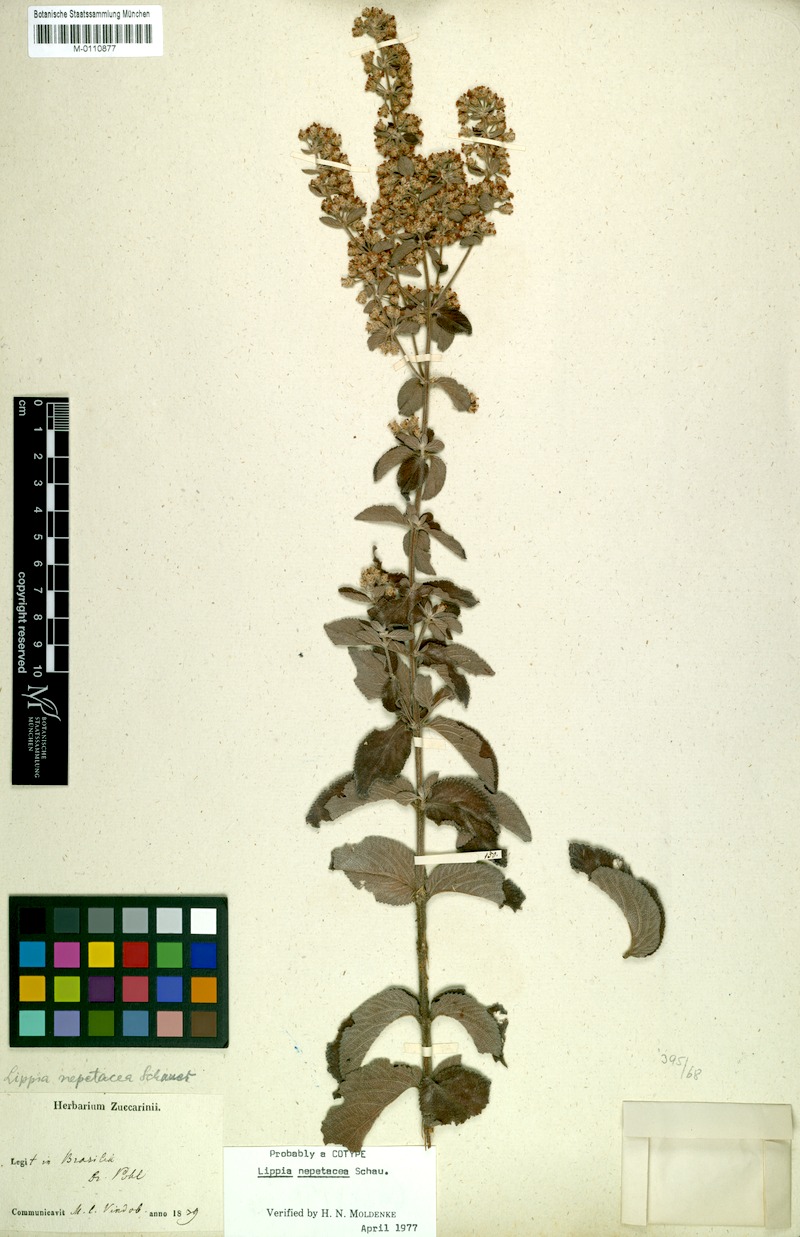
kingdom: Plantae
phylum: Tracheophyta
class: Magnoliopsida
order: Lamiales
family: Verbenaceae
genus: Lippia
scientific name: Lippia martiana
